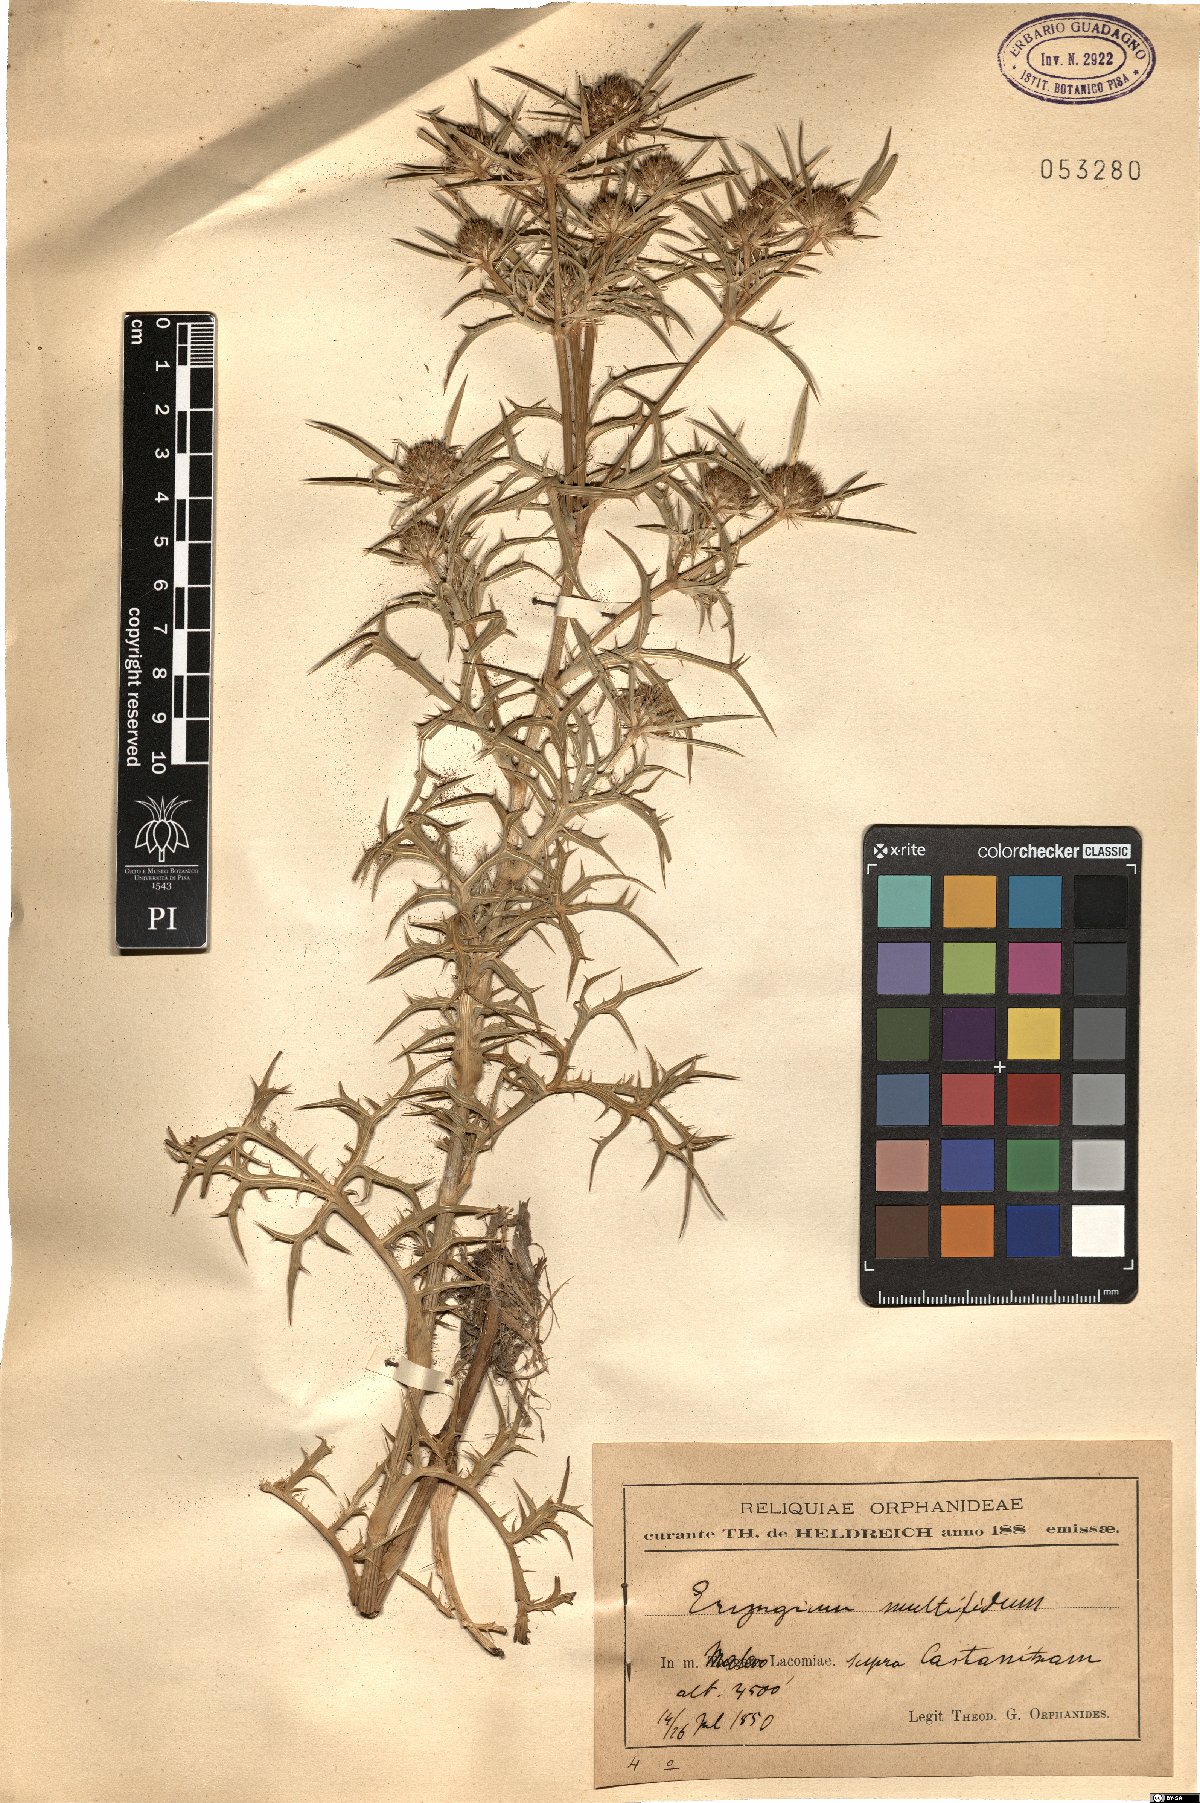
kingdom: Plantae
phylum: Tracheophyta
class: Magnoliopsida
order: Apiales
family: Apiaceae
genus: Eryngium
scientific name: Eryngium amethystinum
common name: Amethyst eryngo
